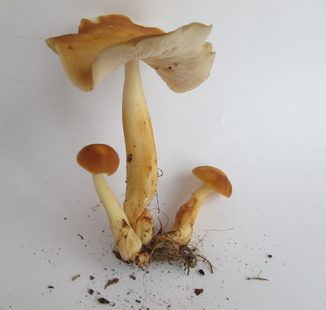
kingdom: Fungi
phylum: Basidiomycota
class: Agaricomycetes
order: Agaricales
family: Omphalotaceae
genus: Gymnopus
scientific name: Gymnopus ocior
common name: mørk fladhat
